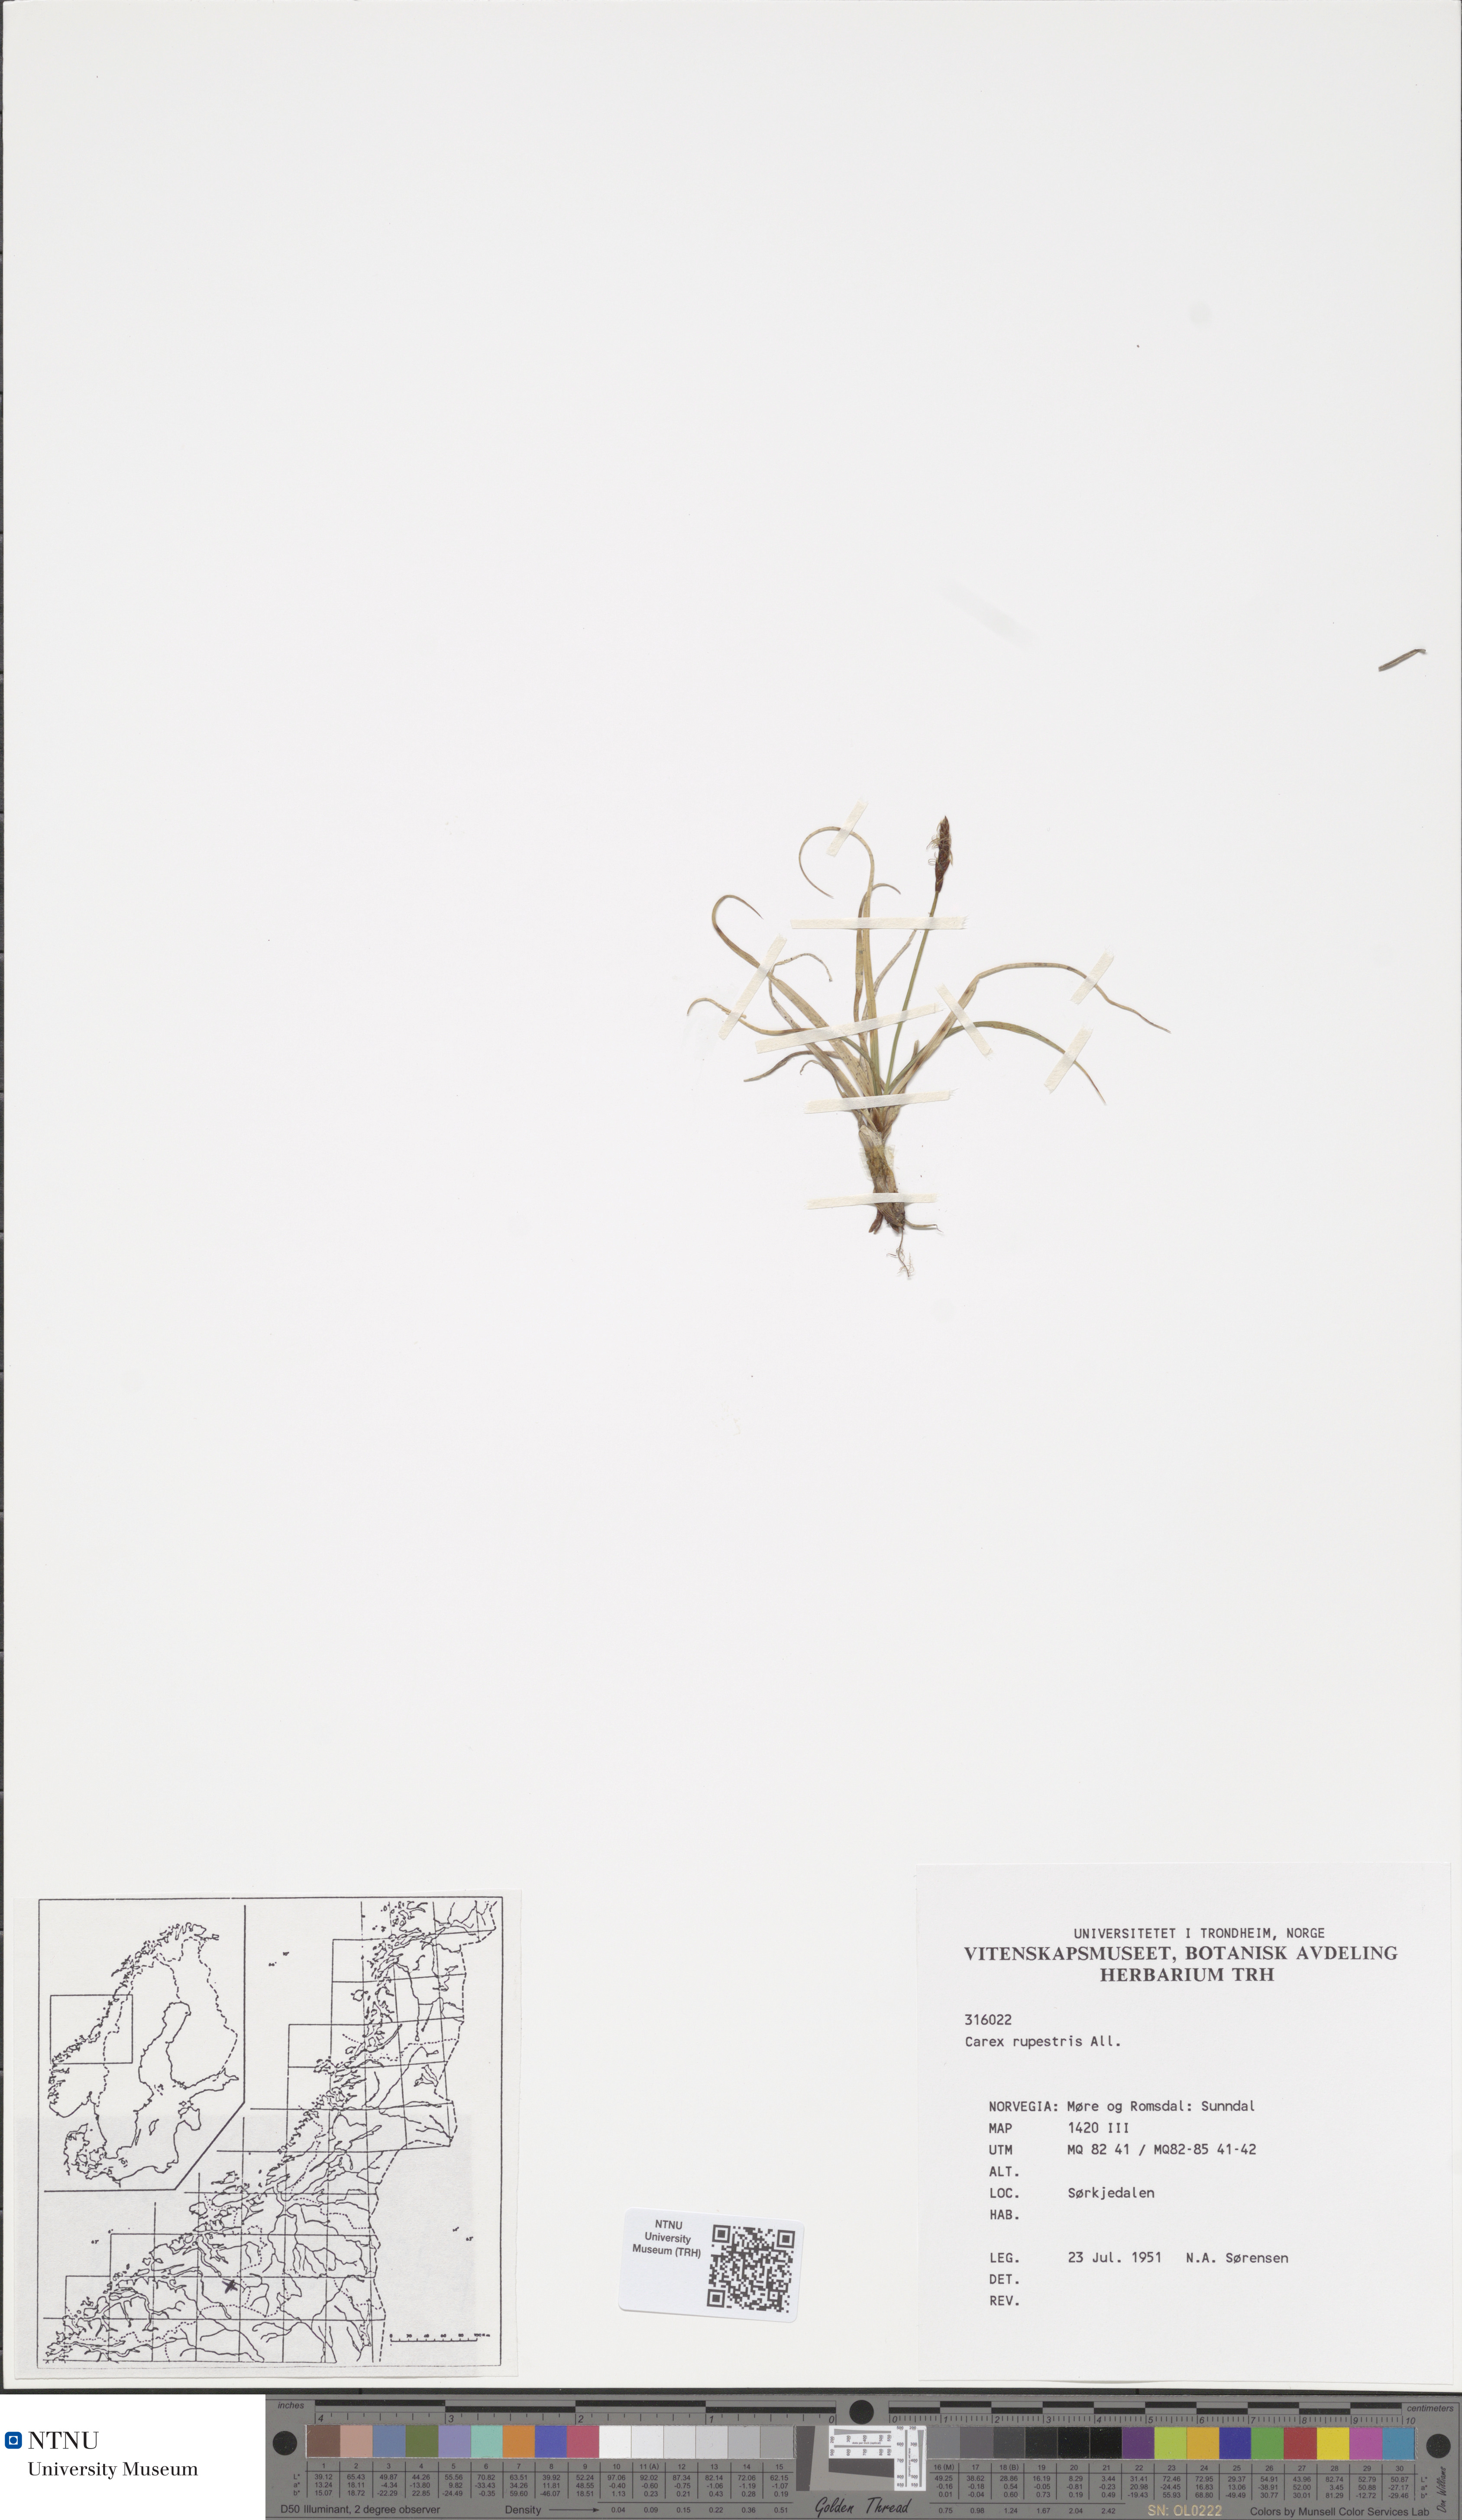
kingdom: Plantae
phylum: Tracheophyta
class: Liliopsida
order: Poales
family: Cyperaceae
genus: Carex
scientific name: Carex rupestris
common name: Rock sedge
